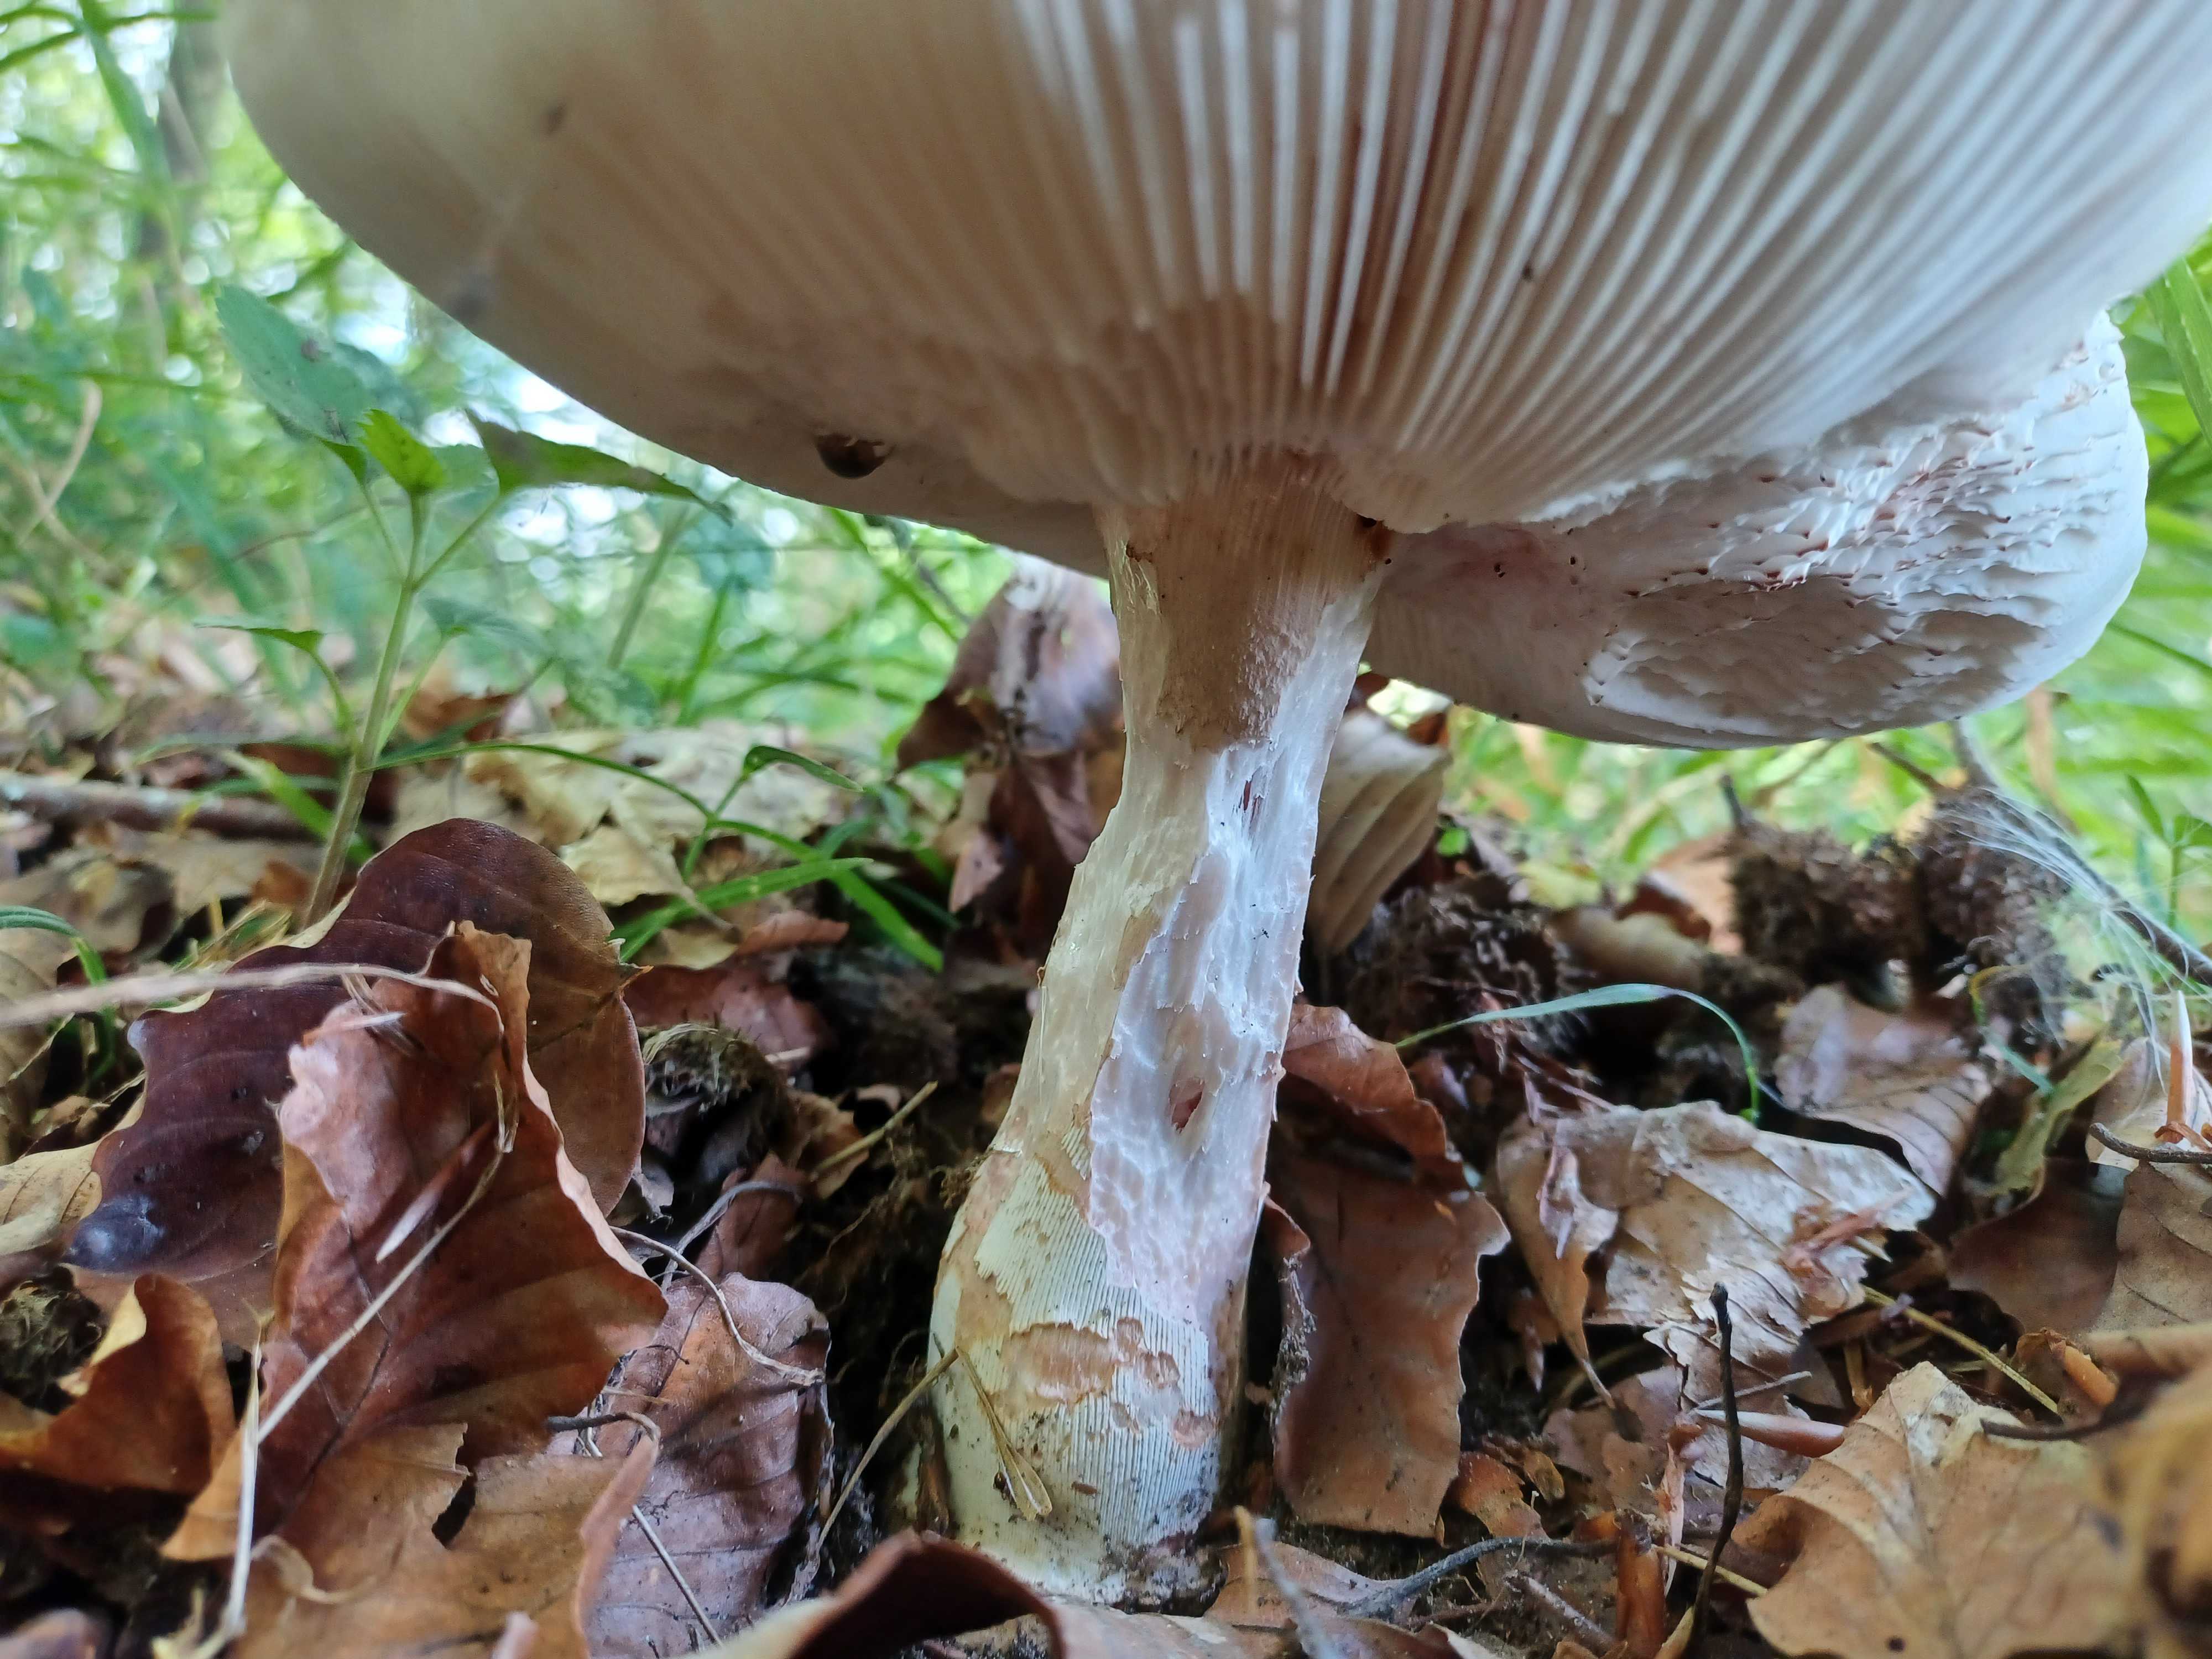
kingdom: Fungi
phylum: Basidiomycota
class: Agaricomycetes
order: Agaricales
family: Amanitaceae
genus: Amanita
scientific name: Amanita rubescens
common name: rødmende fluesvamp
